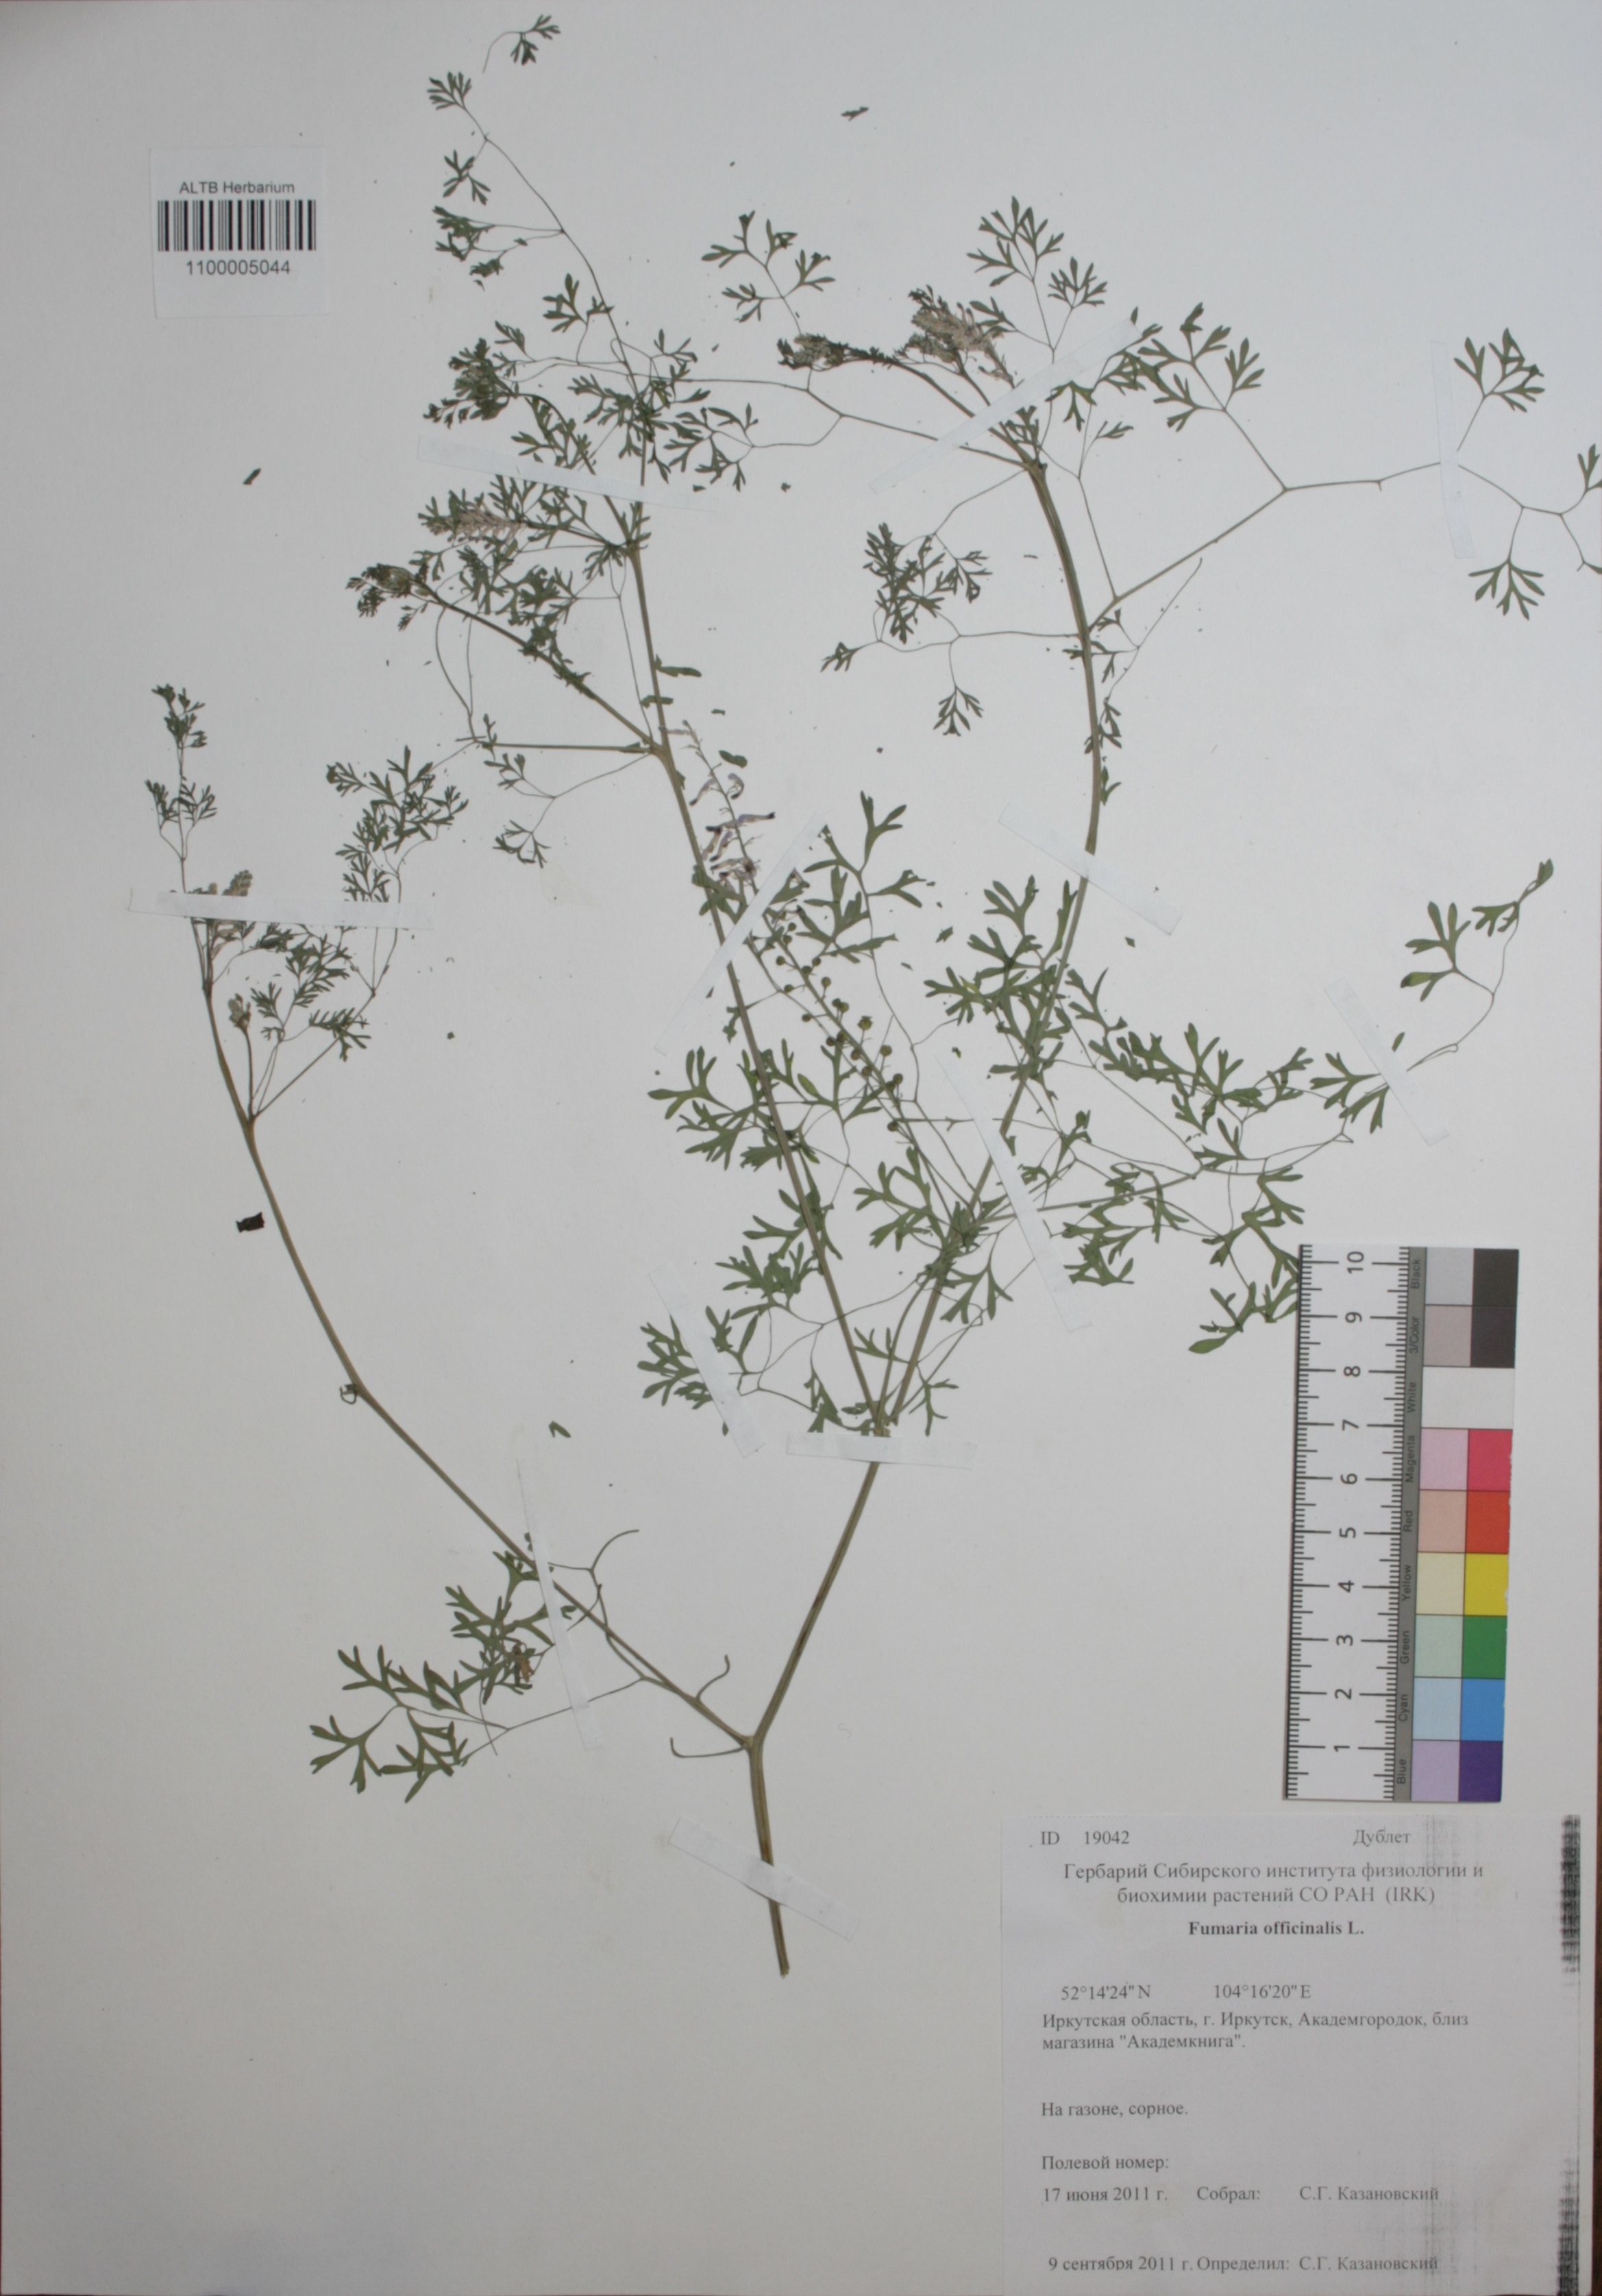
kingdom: Plantae
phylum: Tracheophyta
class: Magnoliopsida
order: Ranunculales
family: Papaveraceae
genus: Fumaria
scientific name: Fumaria officinalis
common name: Common fumitory
